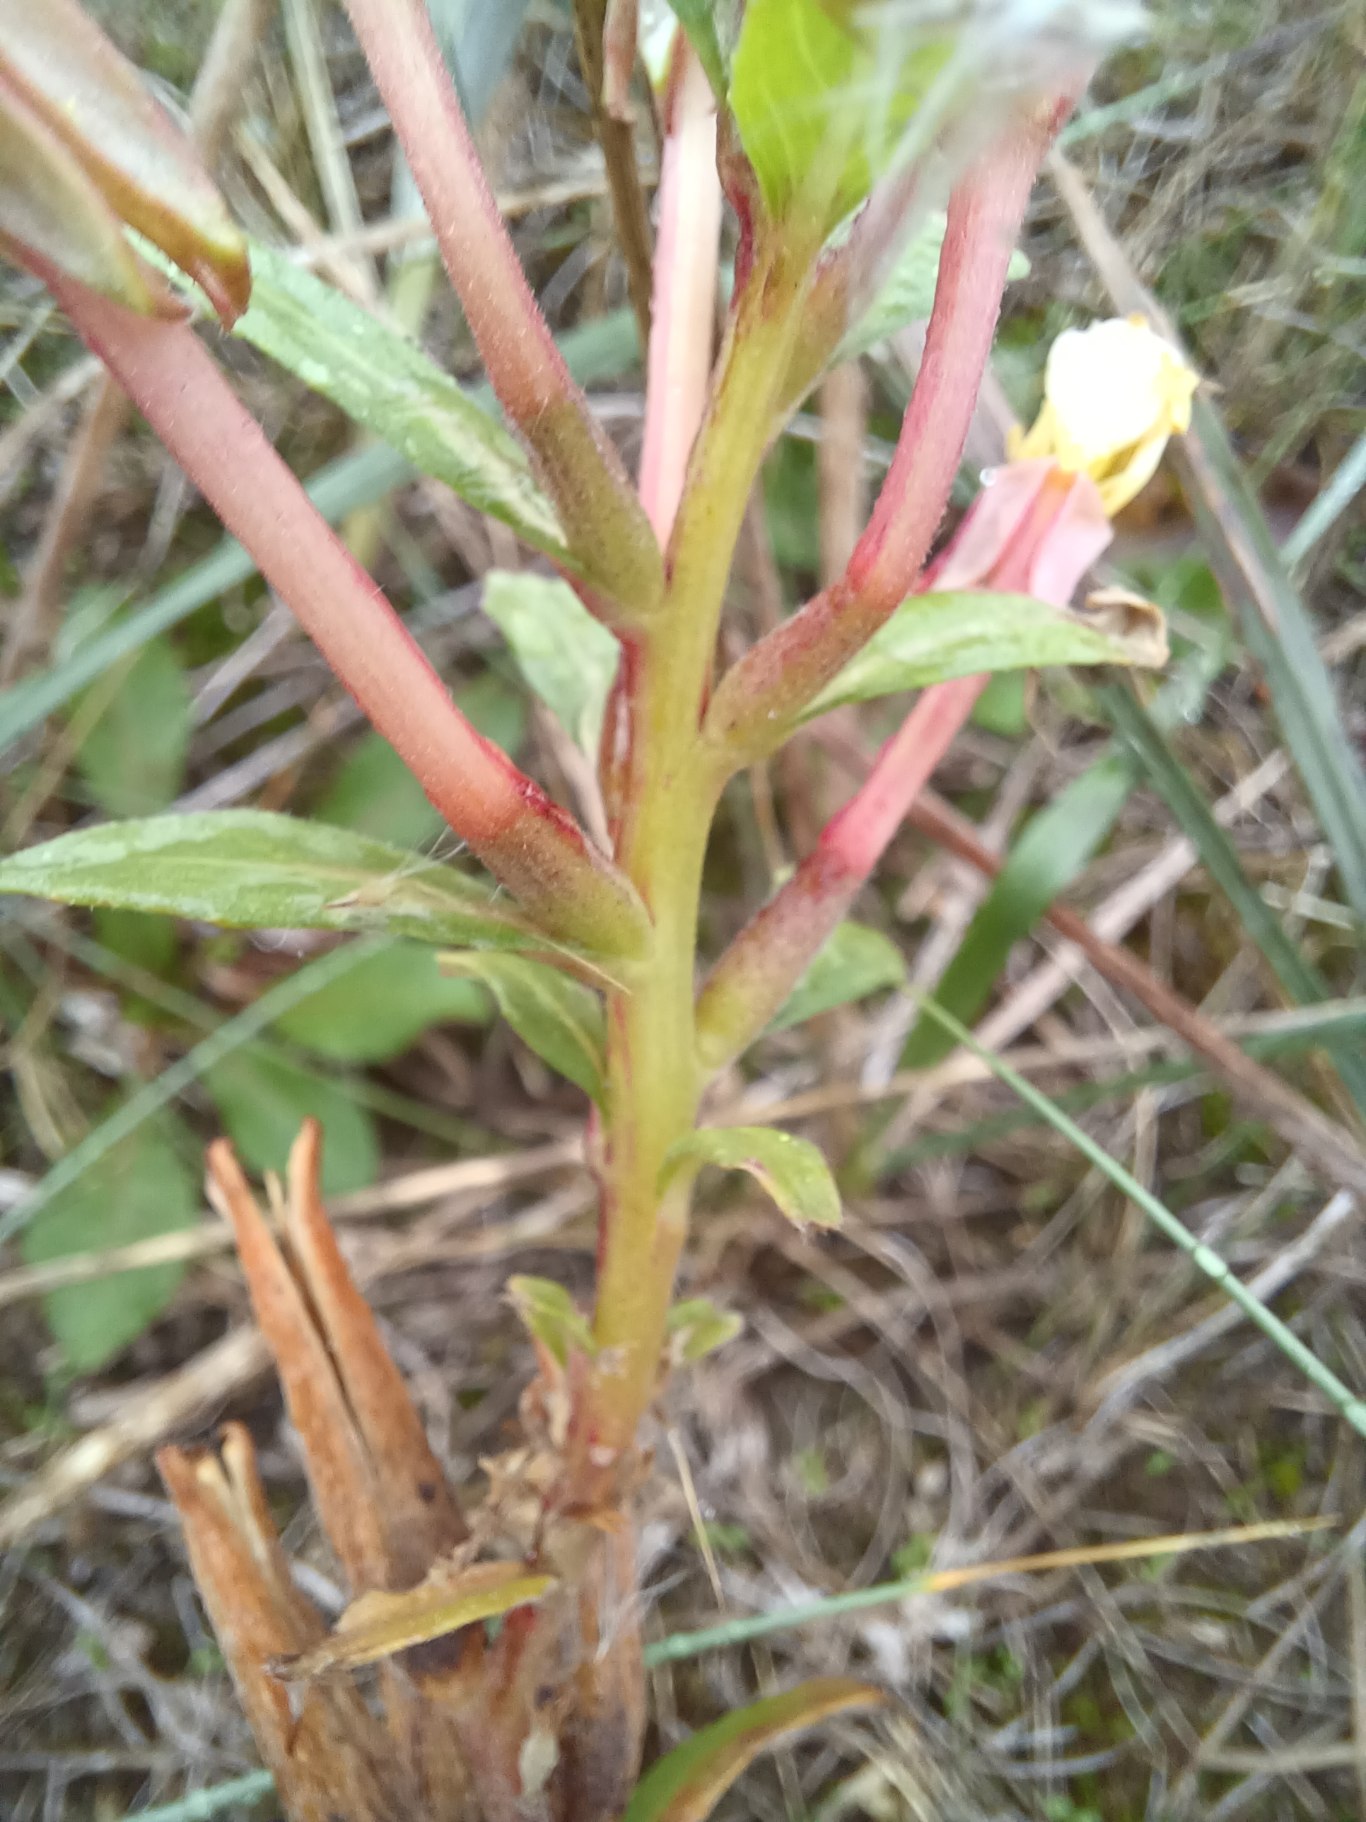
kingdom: Plantae
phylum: Tracheophyta
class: Magnoliopsida
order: Myrtales
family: Onagraceae
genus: Oenothera
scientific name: Oenothera ammophila
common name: Klit-natlys
